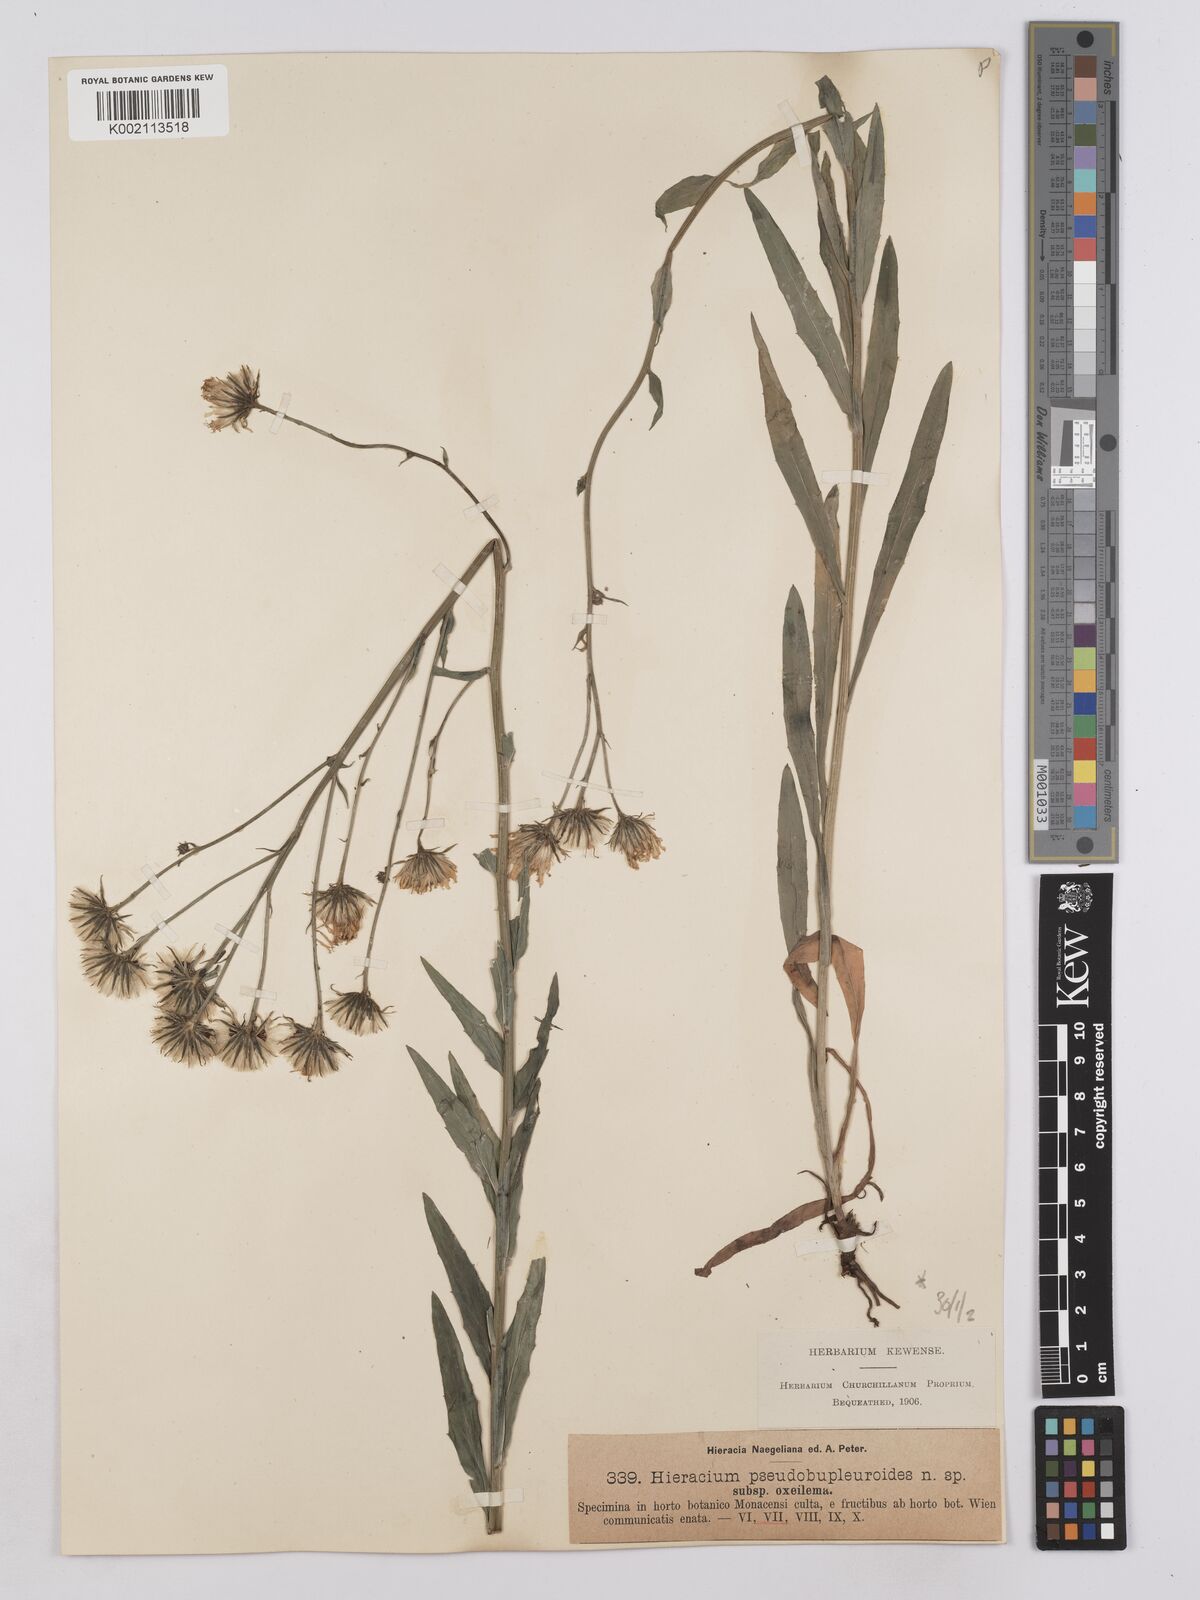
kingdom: Plantae
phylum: Tracheophyta
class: Magnoliopsida
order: Asterales
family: Asteraceae
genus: Hieracium
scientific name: Hieracium vindobonense
